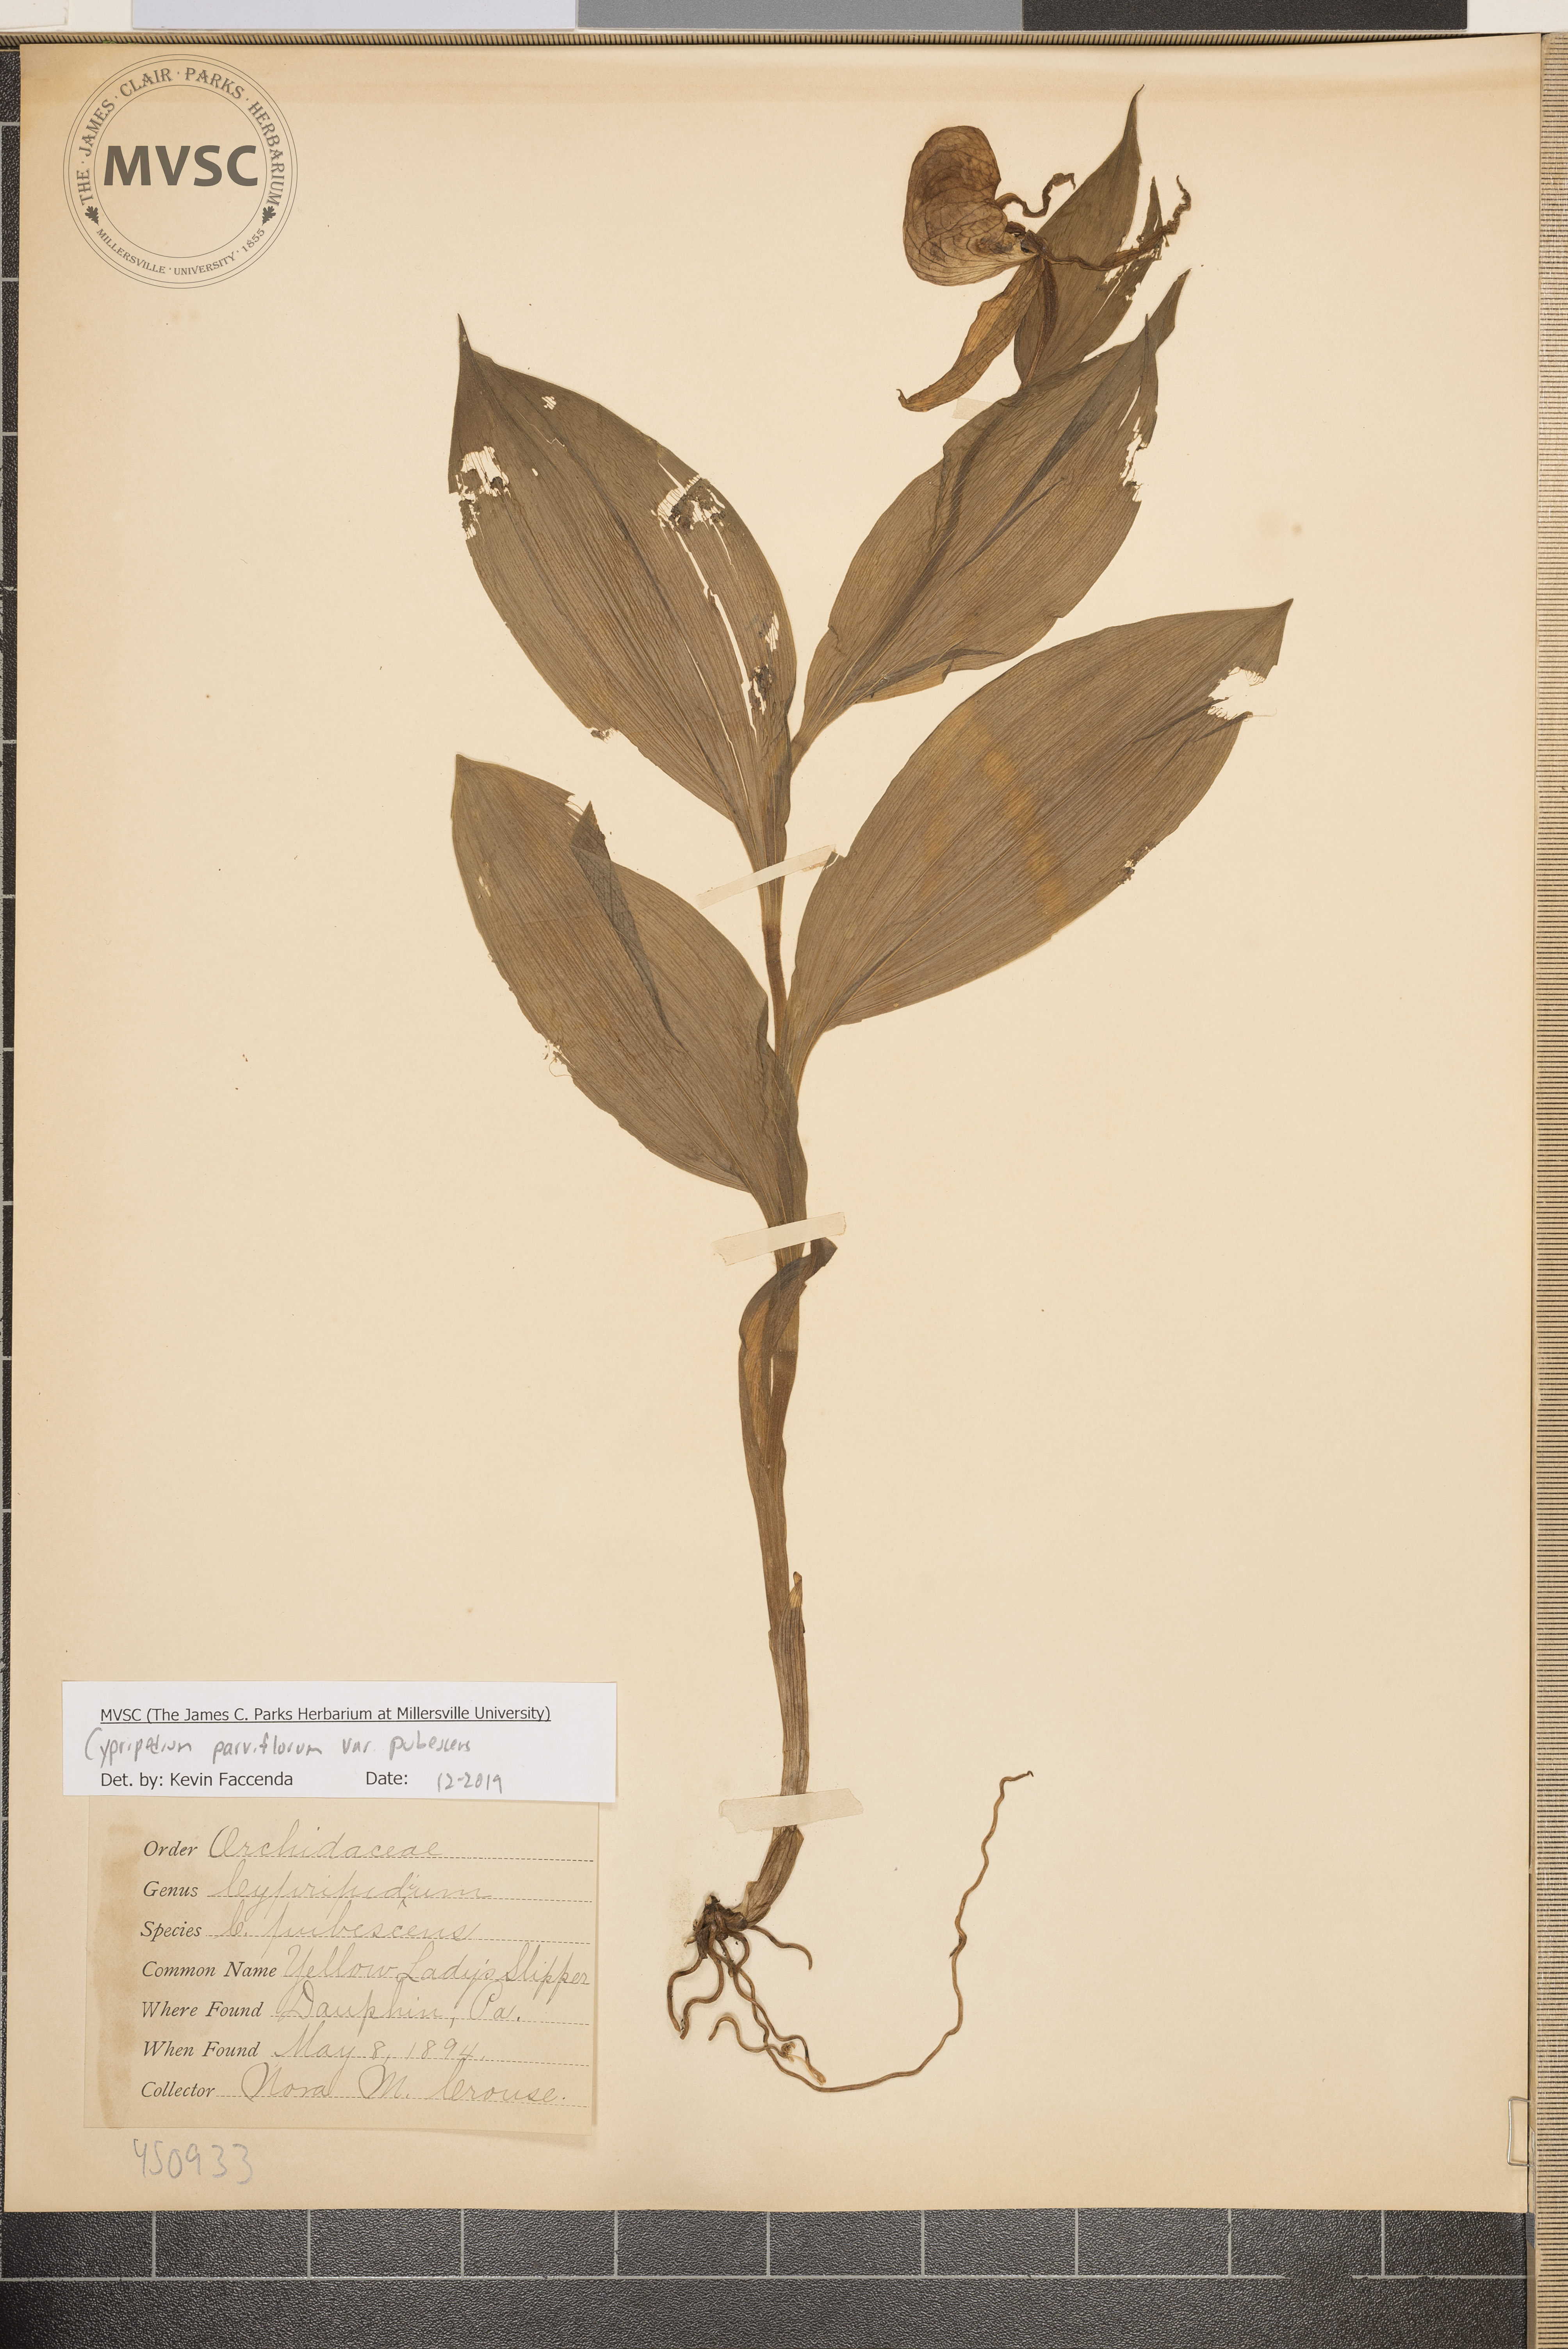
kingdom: Plantae
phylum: Tracheophyta
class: Liliopsida
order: Asparagales
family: Orchidaceae
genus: Cypripedium
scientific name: Cypripedium parviflorum
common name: Yellow Lady's slipper
